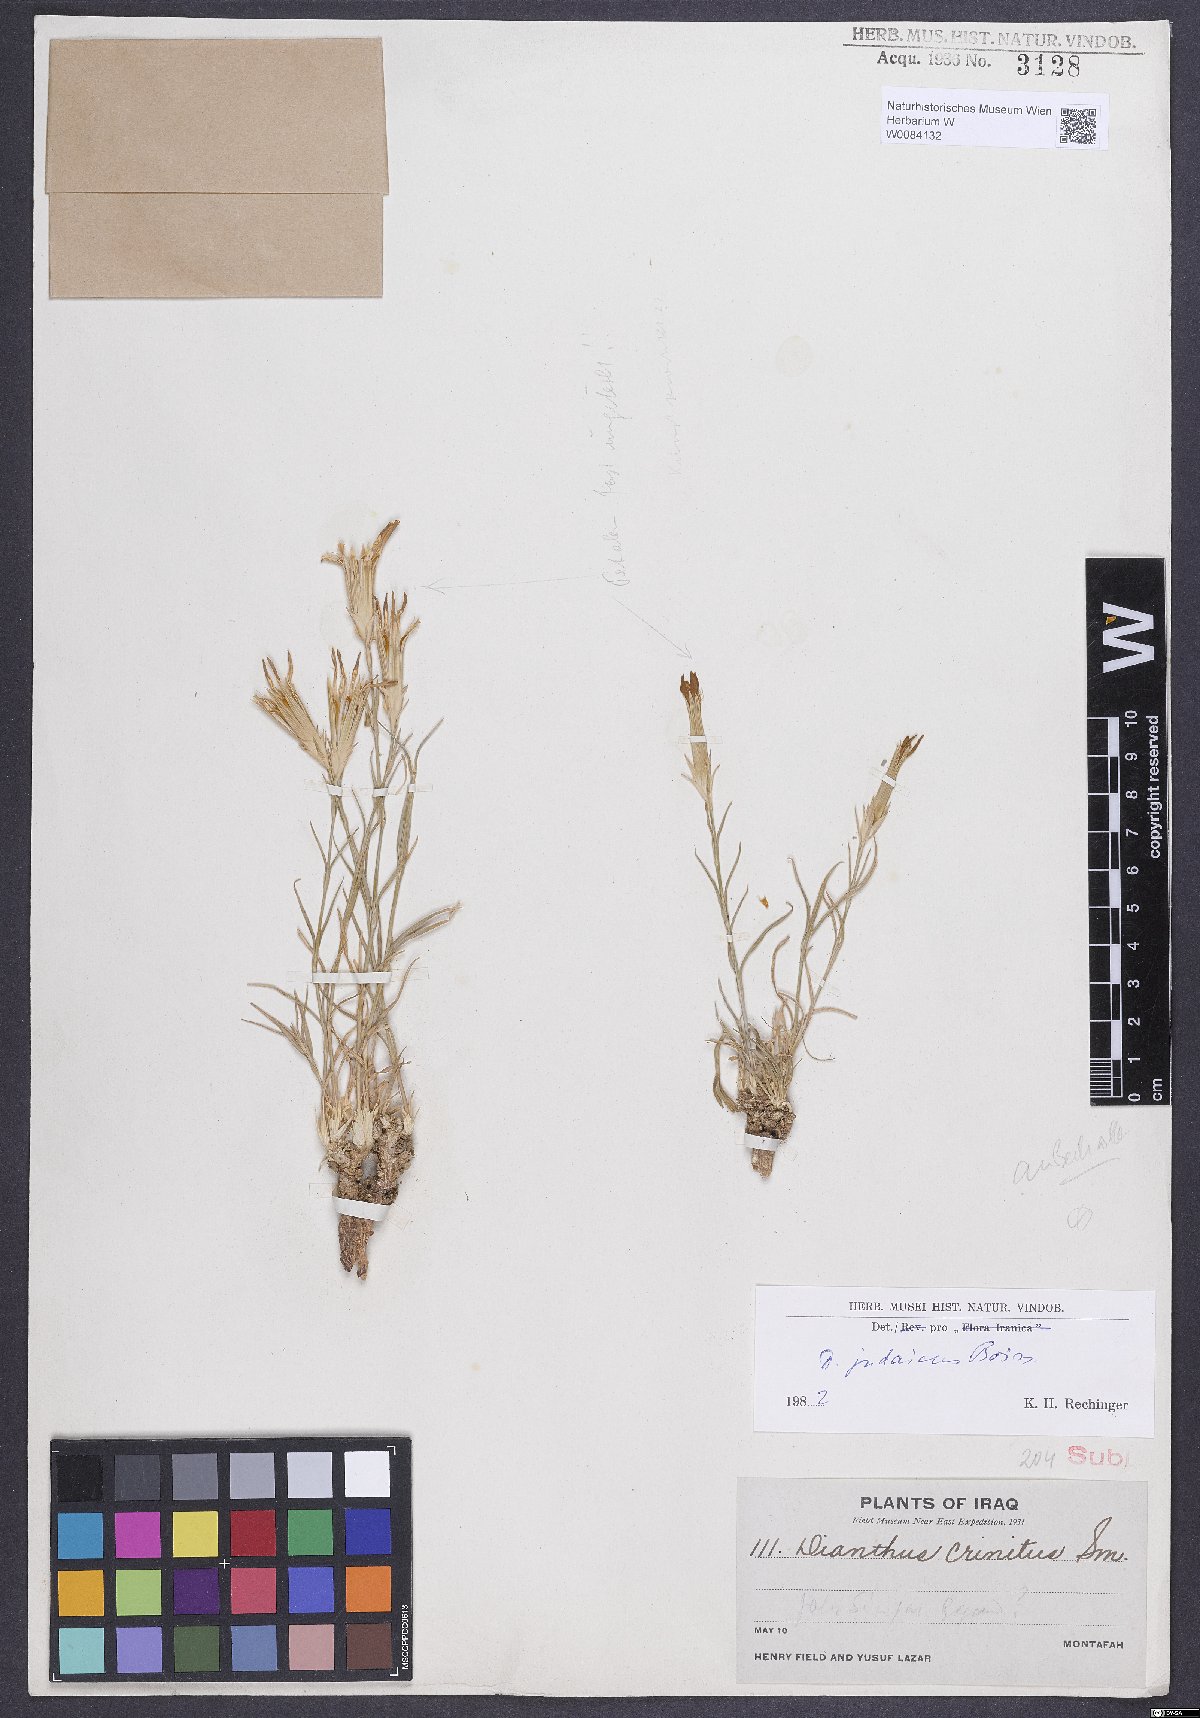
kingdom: Plantae
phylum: Tracheophyta
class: Magnoliopsida
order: Caryophyllales
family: Caryophyllaceae
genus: Dianthus
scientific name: Dianthus monadelphus
